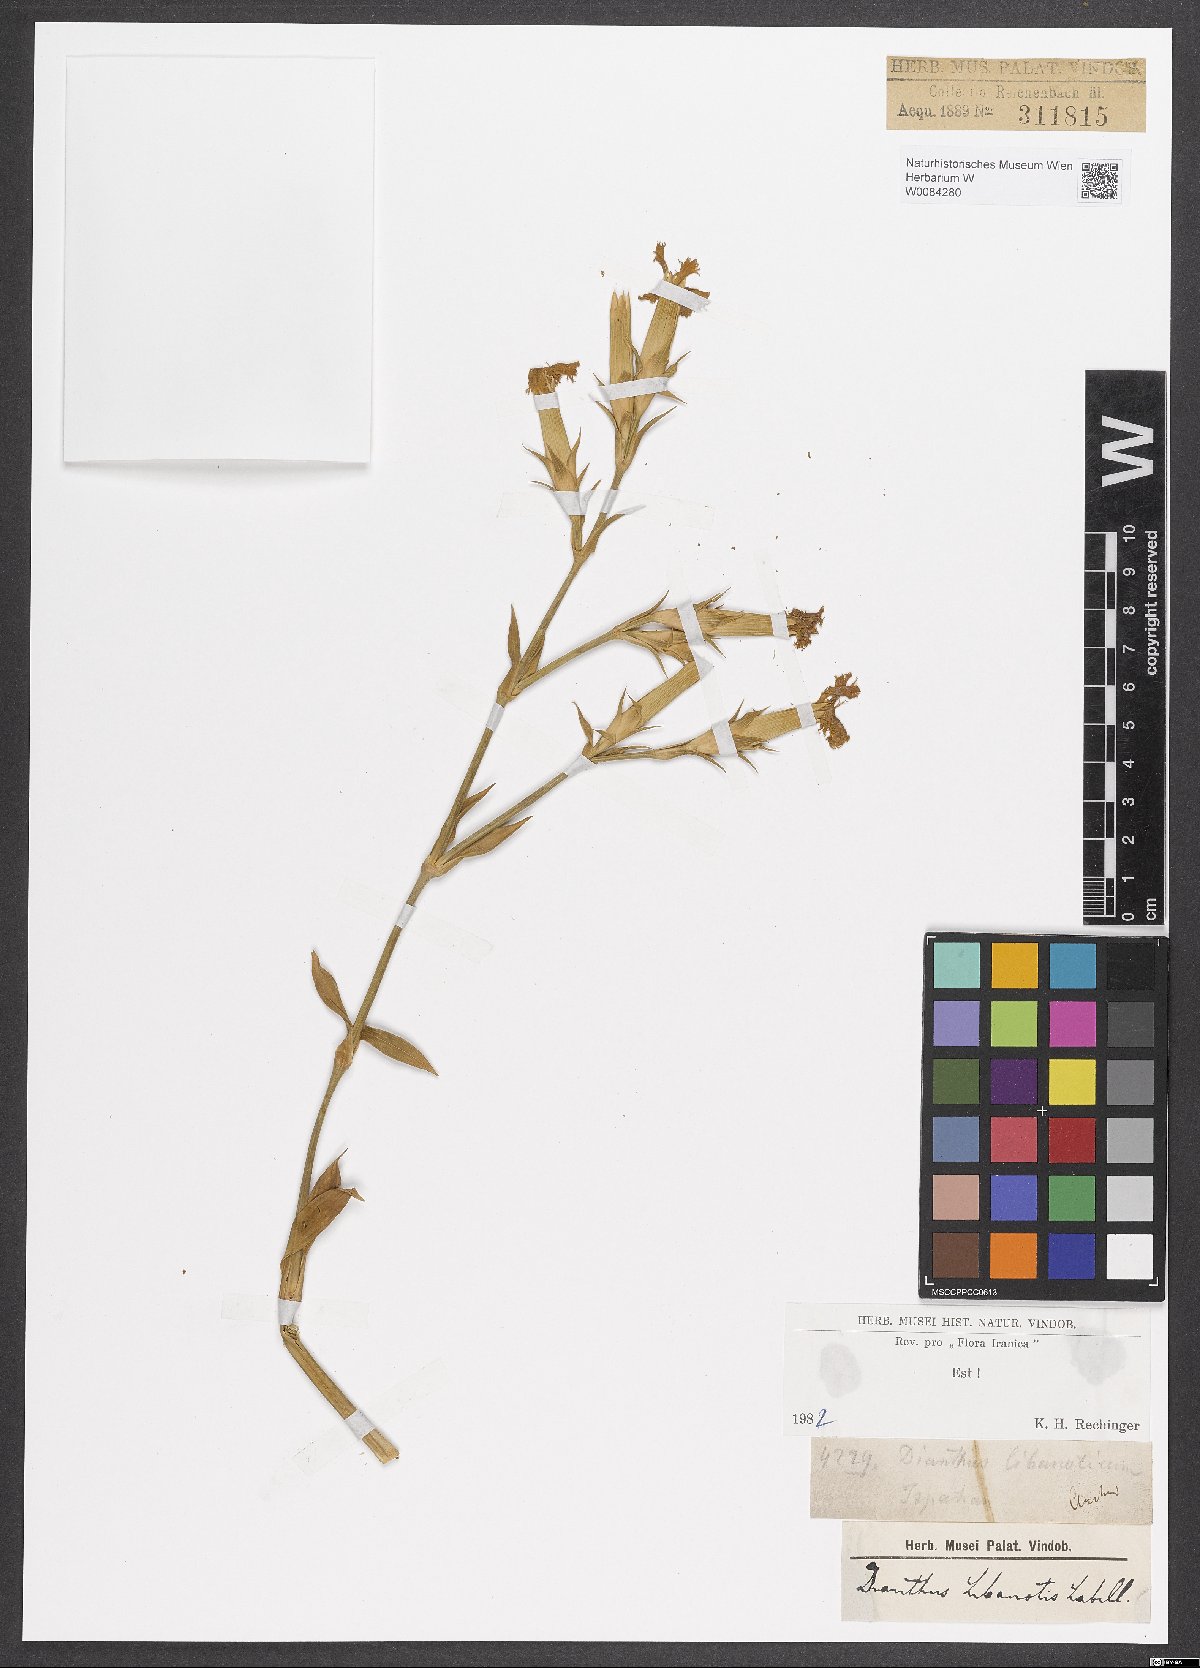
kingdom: Plantae
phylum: Tracheophyta
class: Magnoliopsida
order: Caryophyllales
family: Caryophyllaceae
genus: Dianthus
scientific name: Dianthus libanotis
